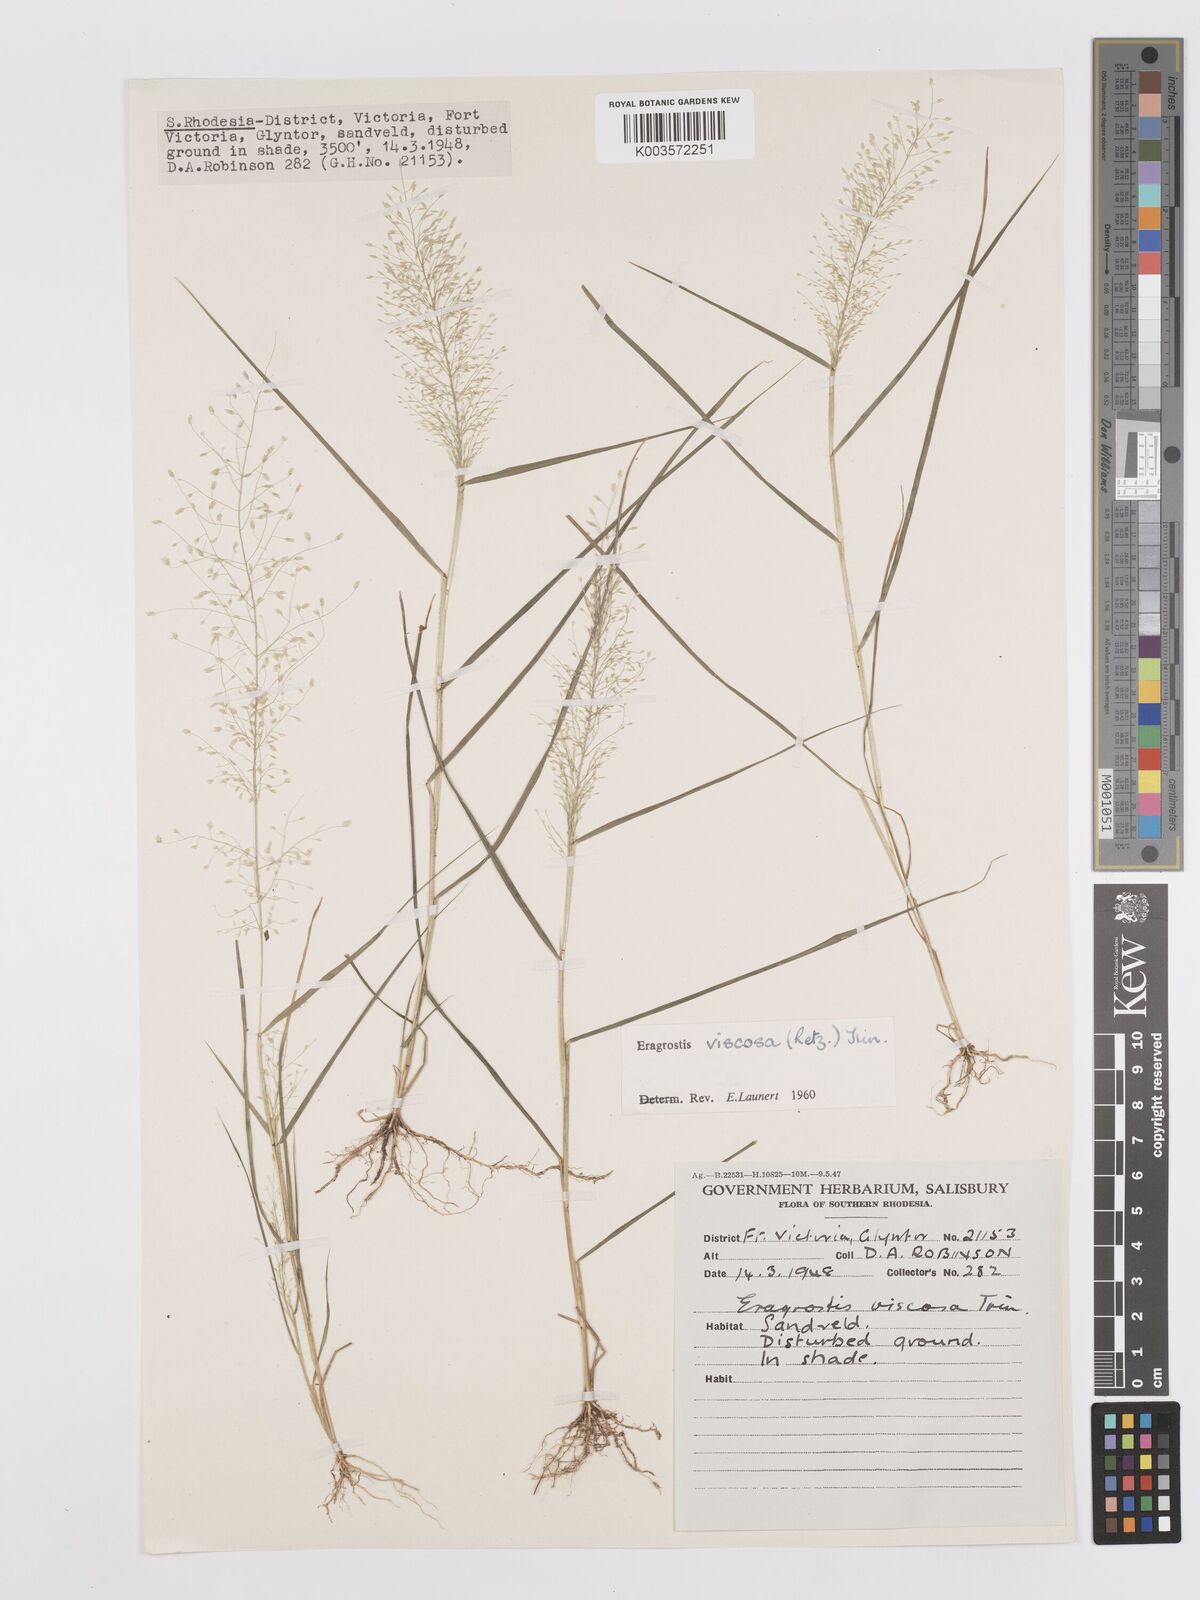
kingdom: Plantae
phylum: Tracheophyta
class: Liliopsida
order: Poales
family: Poaceae
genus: Eragrostis
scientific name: Eragrostis
